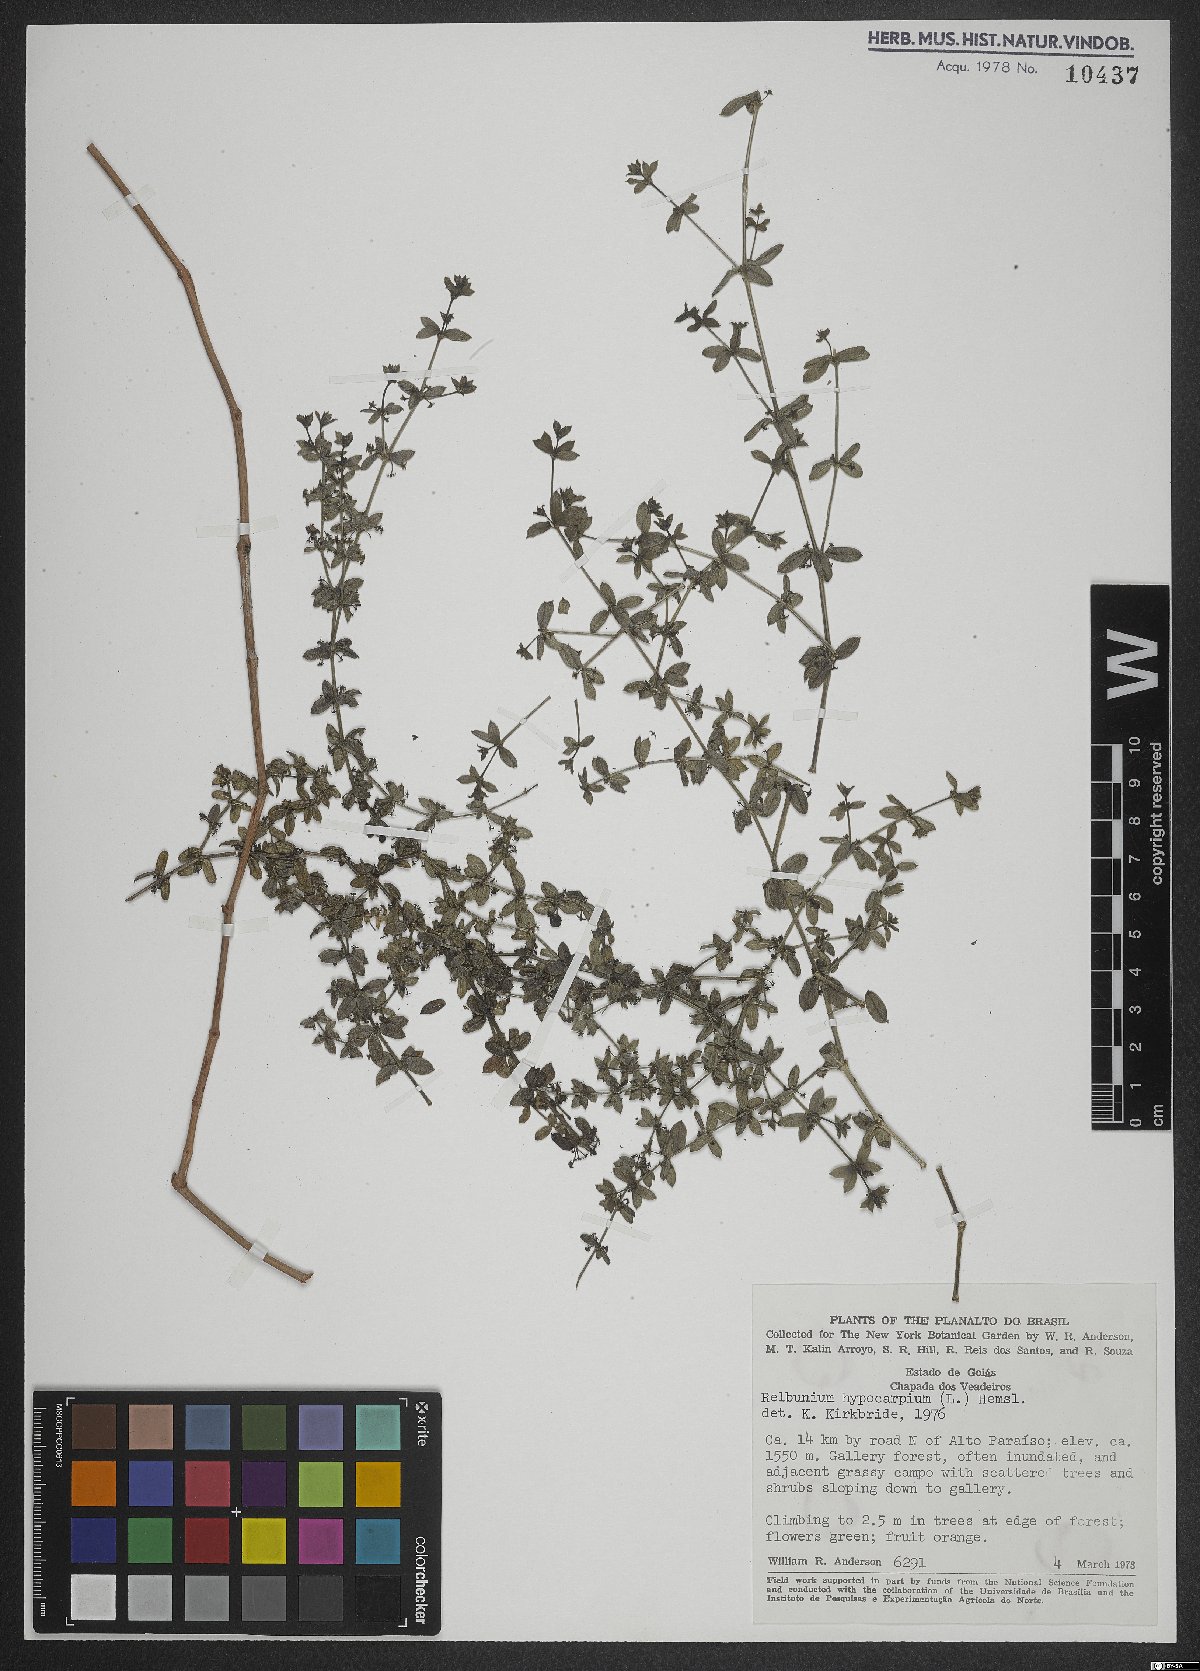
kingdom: Plantae
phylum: Tracheophyta
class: Magnoliopsida
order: Gentianales
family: Rubiaceae
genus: Galium
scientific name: Galium hypocarpium
